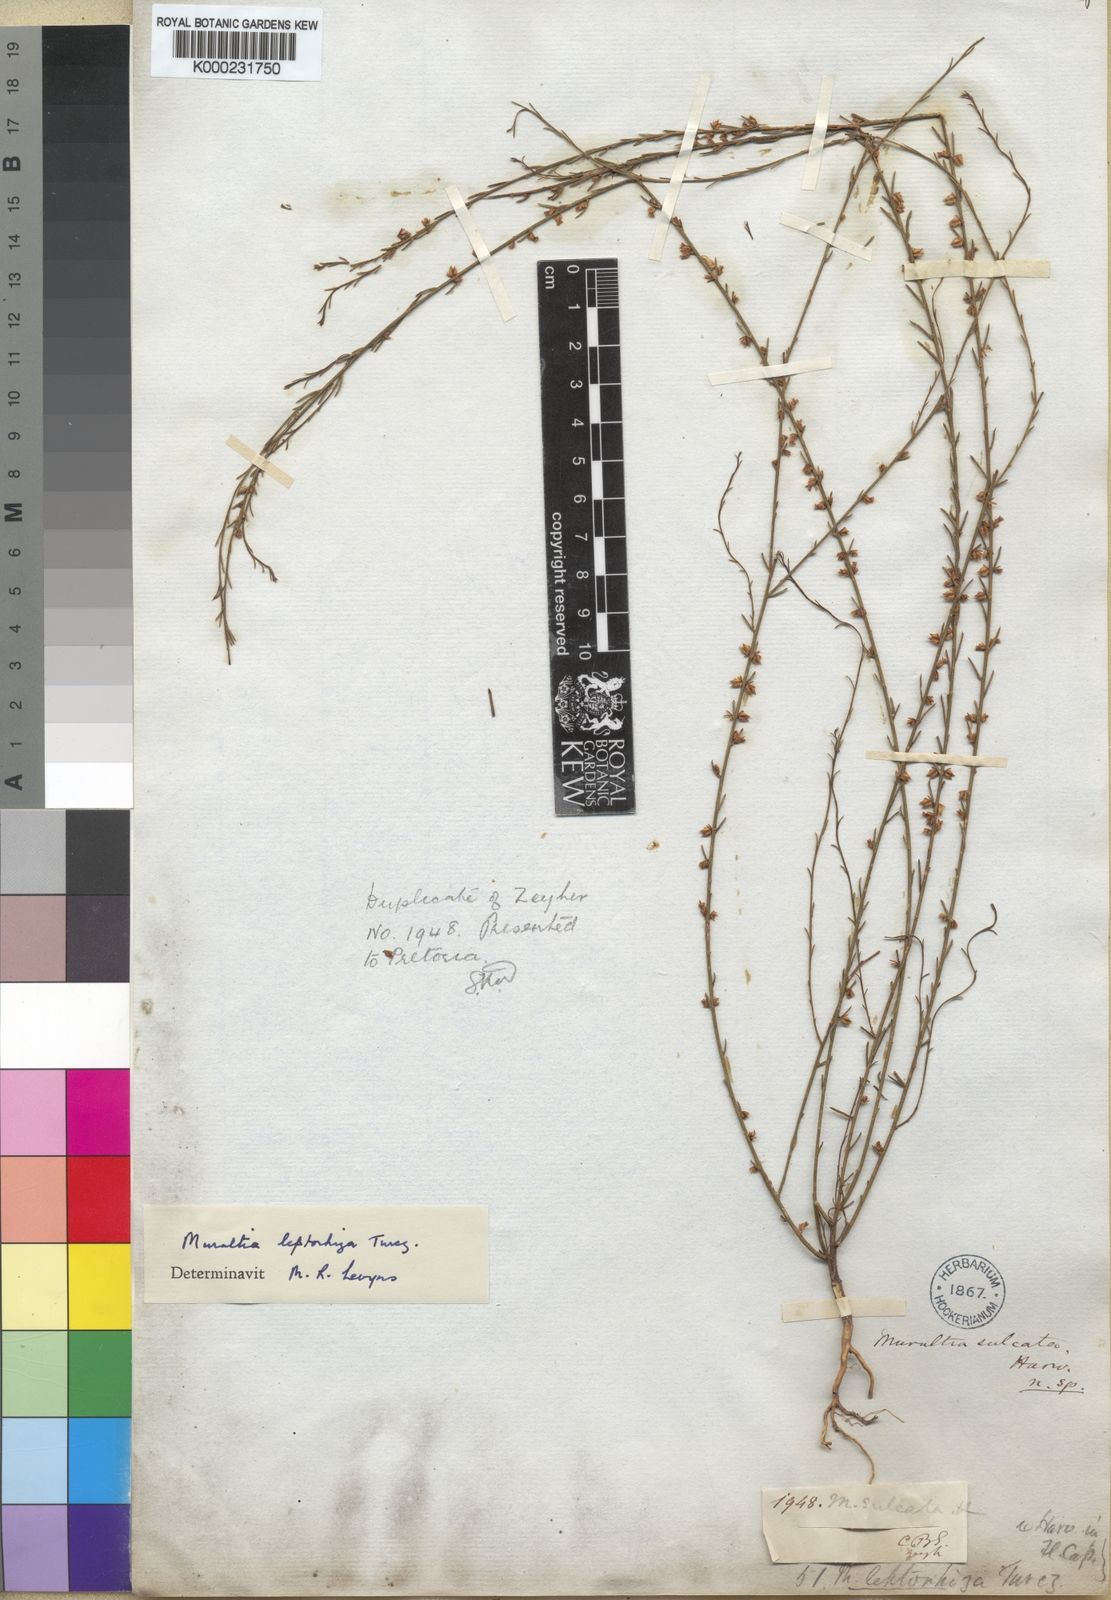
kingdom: Plantae
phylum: Tracheophyta
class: Magnoliopsida
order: Fabales
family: Polygalaceae
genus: Muraltia
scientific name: Muraltia leptorhiza
